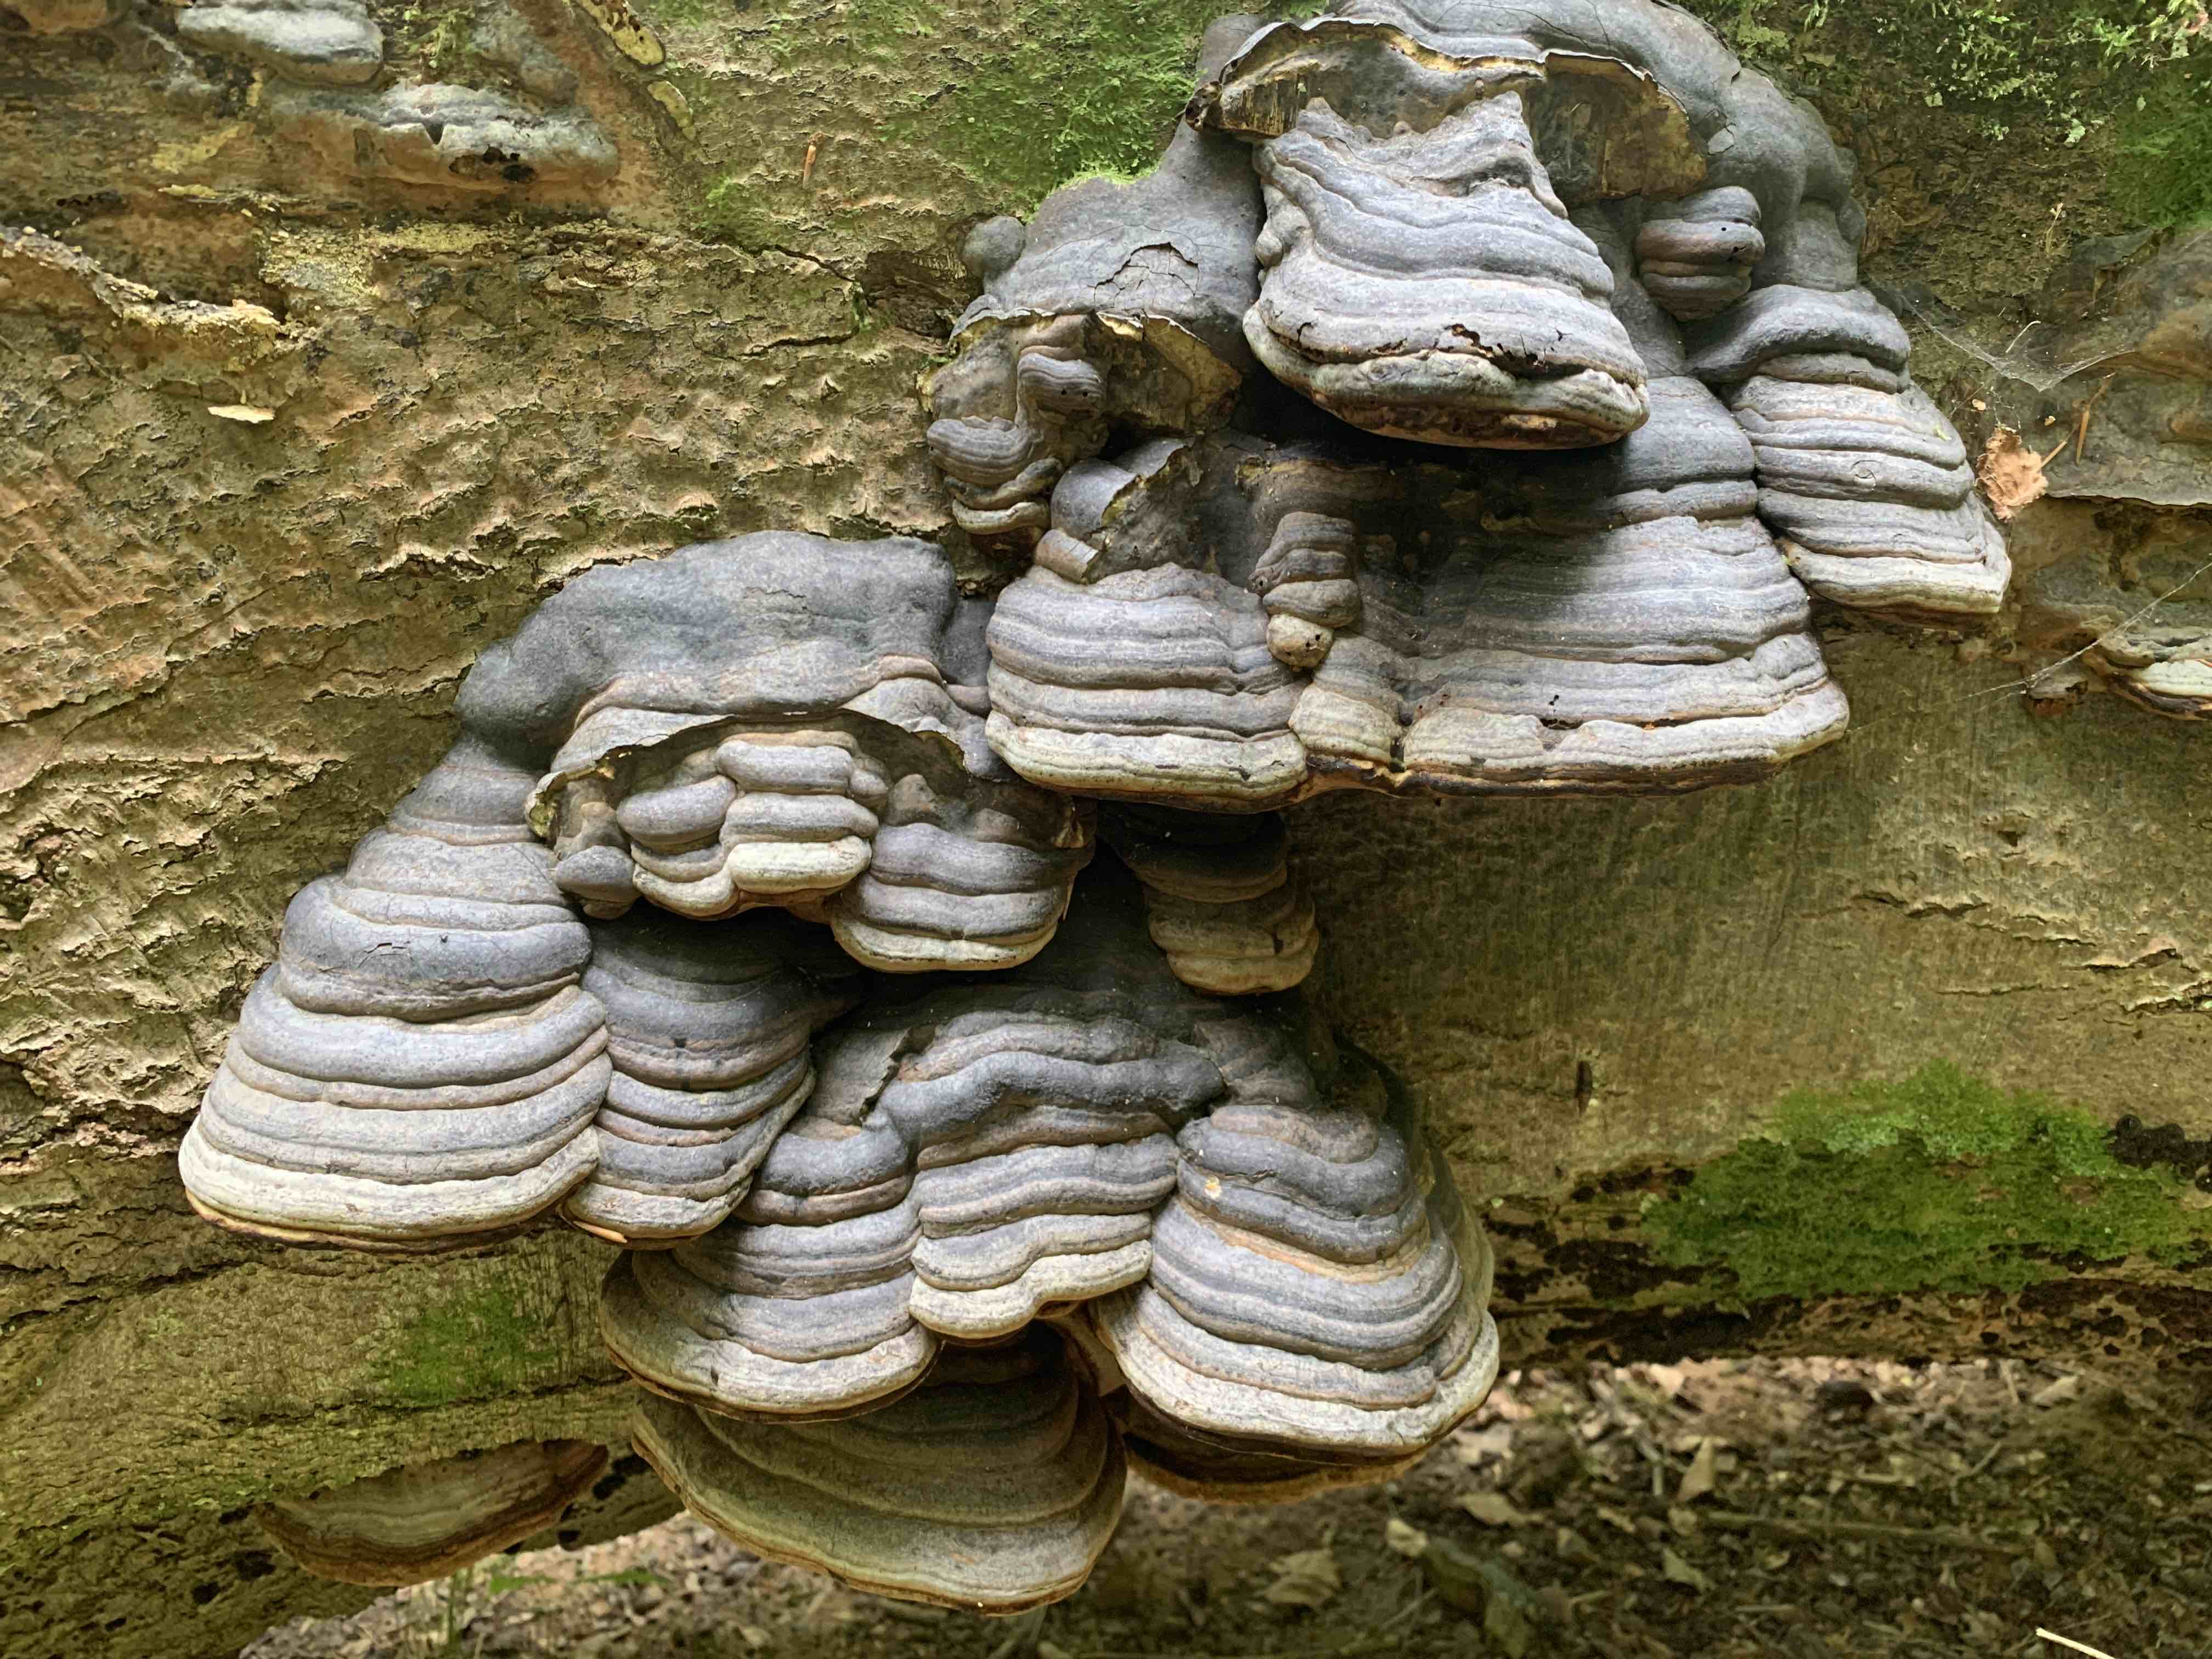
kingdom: Fungi
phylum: Basidiomycota
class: Agaricomycetes
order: Polyporales
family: Polyporaceae
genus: Fomes
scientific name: Fomes fomentarius
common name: tøndersvamp
